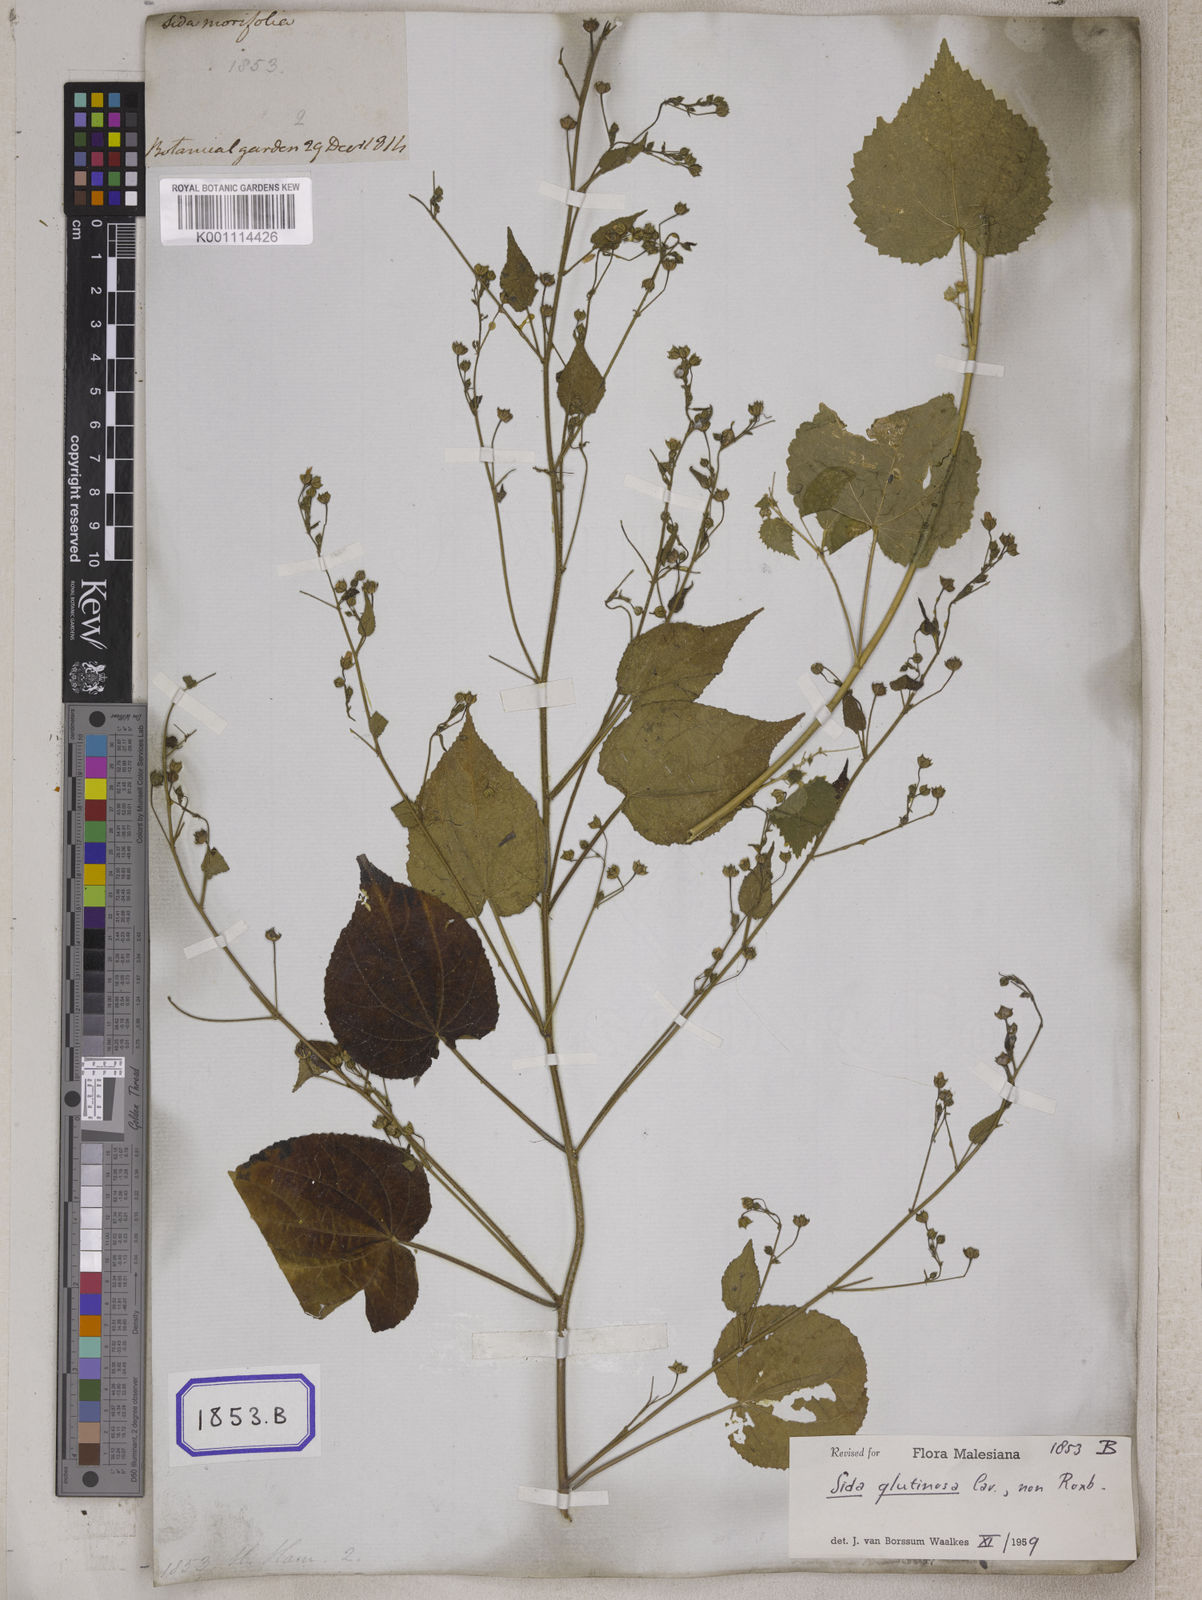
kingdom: Plantae
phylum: Tracheophyta
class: Magnoliopsida
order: Malvales
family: Malvaceae
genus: Sida
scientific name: Sida glutinosa
